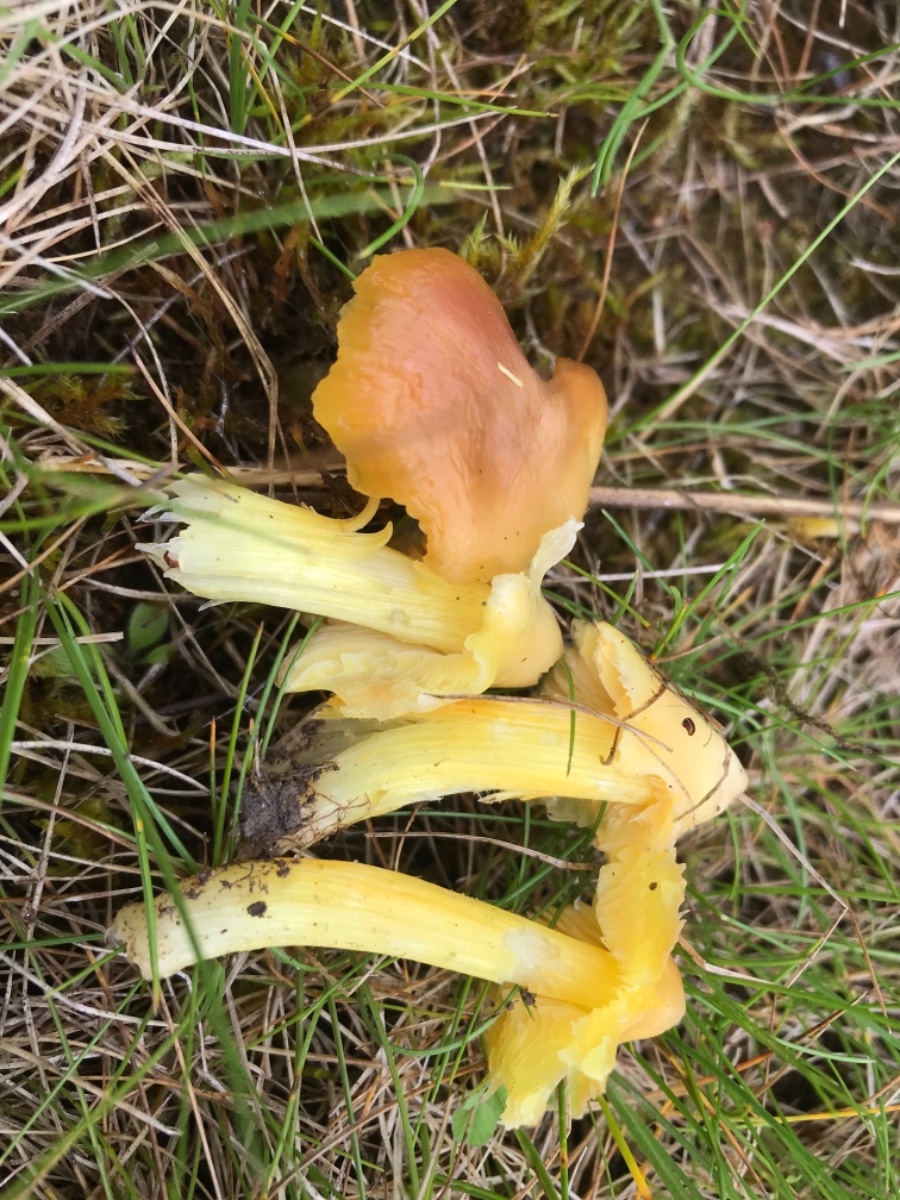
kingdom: Fungi
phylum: Basidiomycota
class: Agaricomycetes
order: Agaricales
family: Hygrophoraceae
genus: Hygrocybe
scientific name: Hygrocybe acutoconica
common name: spidspuklet vokshat
